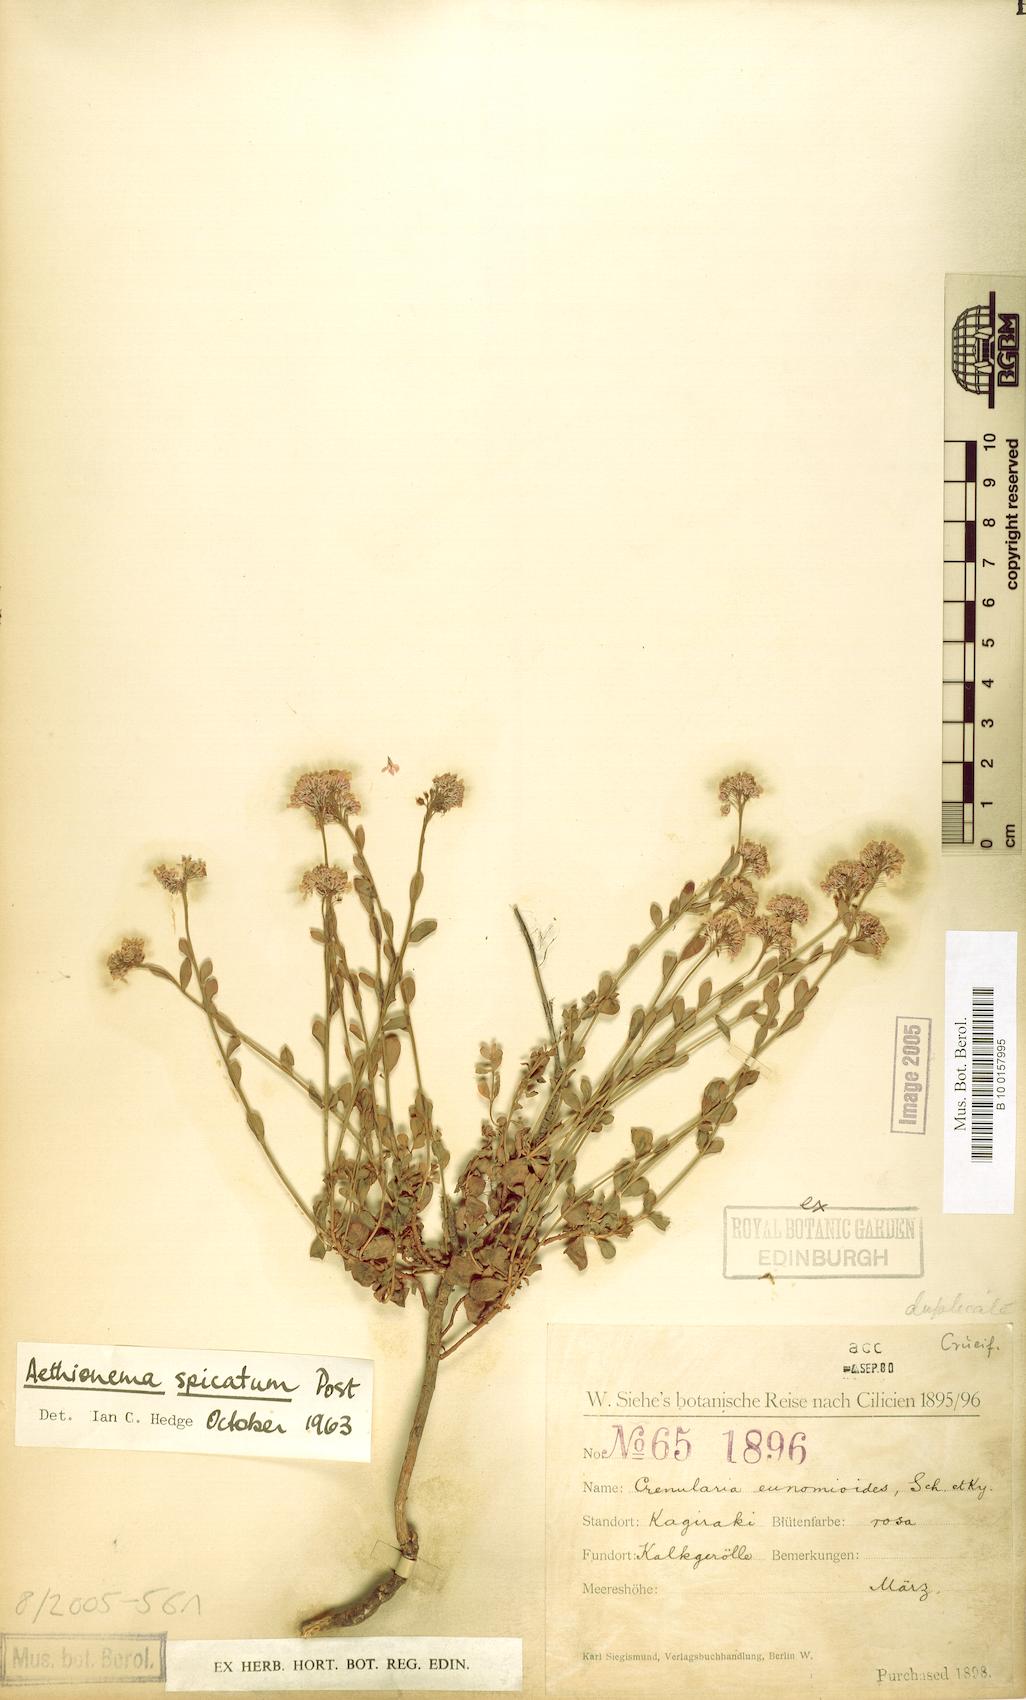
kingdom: Plantae
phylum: Tracheophyta
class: Magnoliopsida
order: Brassicales
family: Brassicaceae
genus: Aethionema
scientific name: Aethionema spicatum
